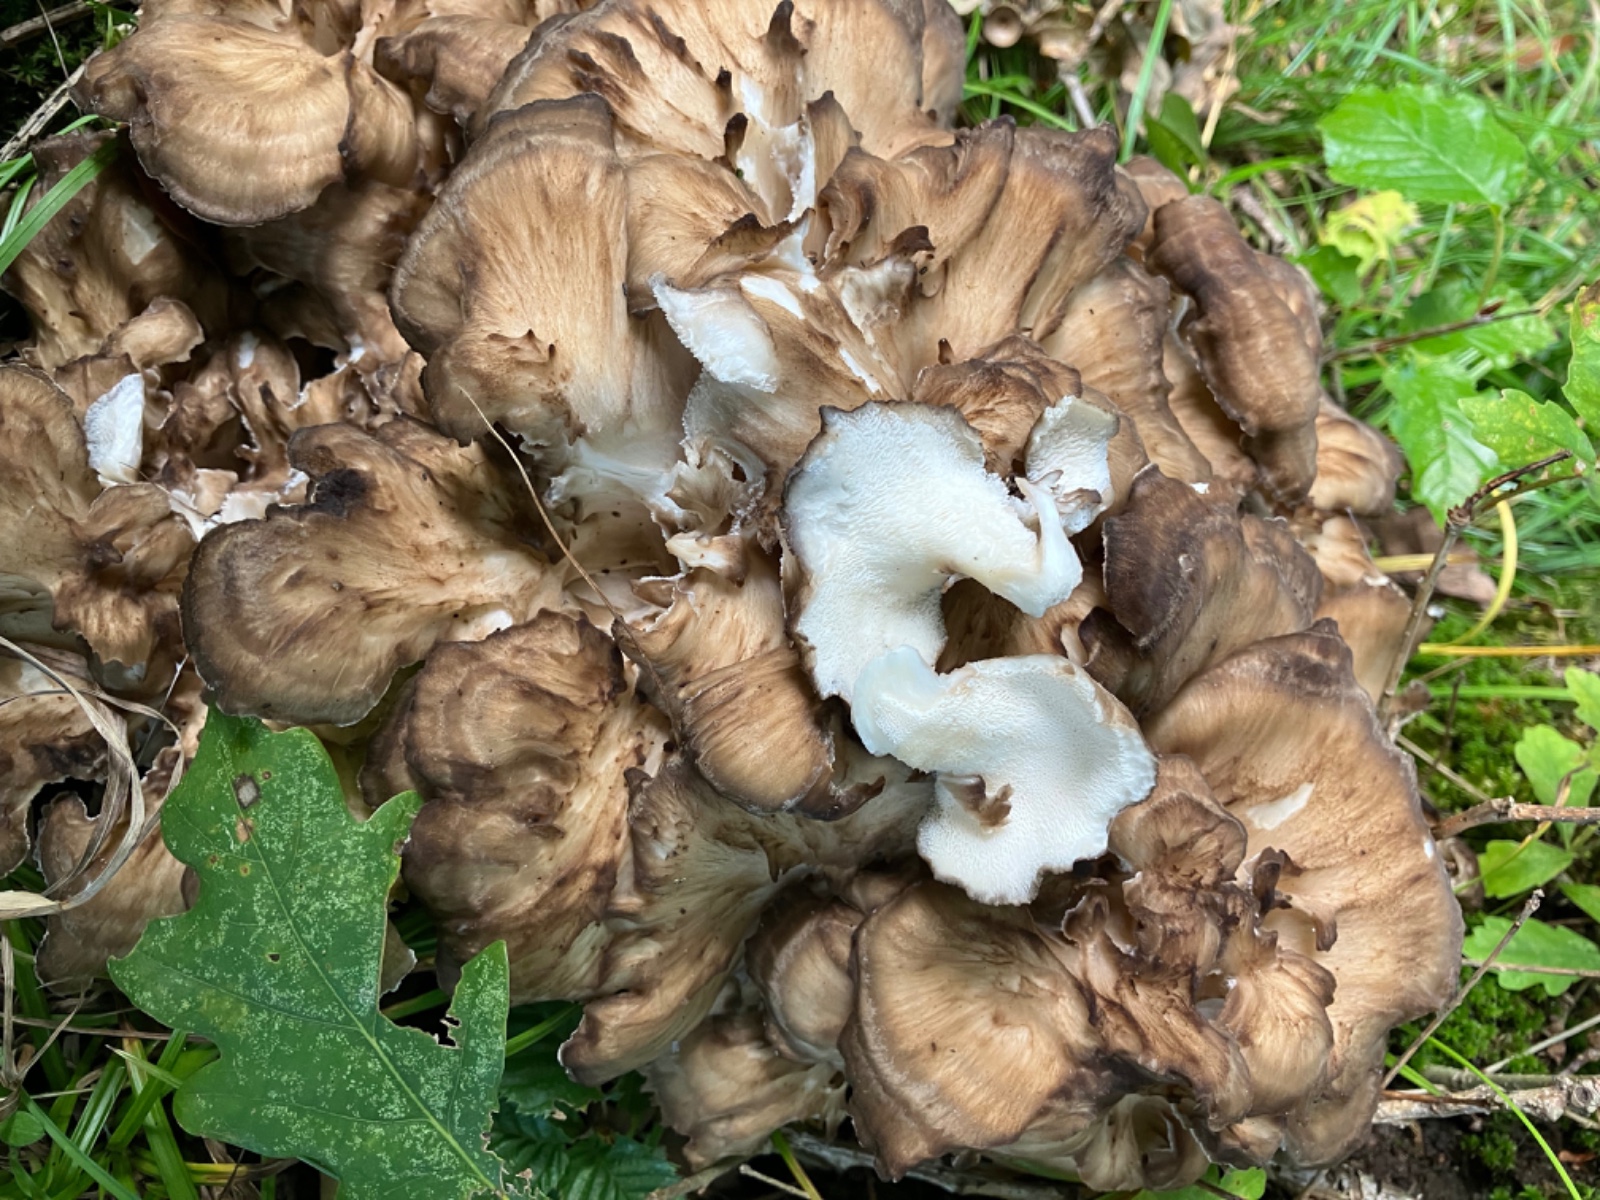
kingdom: Fungi
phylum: Basidiomycota
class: Agaricomycetes
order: Polyporales
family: Grifolaceae
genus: Grifola
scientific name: Grifola frondosa
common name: tueporesvamp
